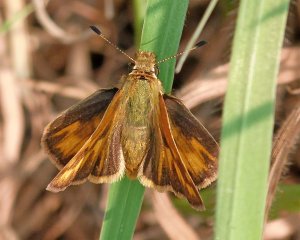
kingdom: Animalia
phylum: Arthropoda
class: Insecta
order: Lepidoptera
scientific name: Lepidoptera
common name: Butterflies
